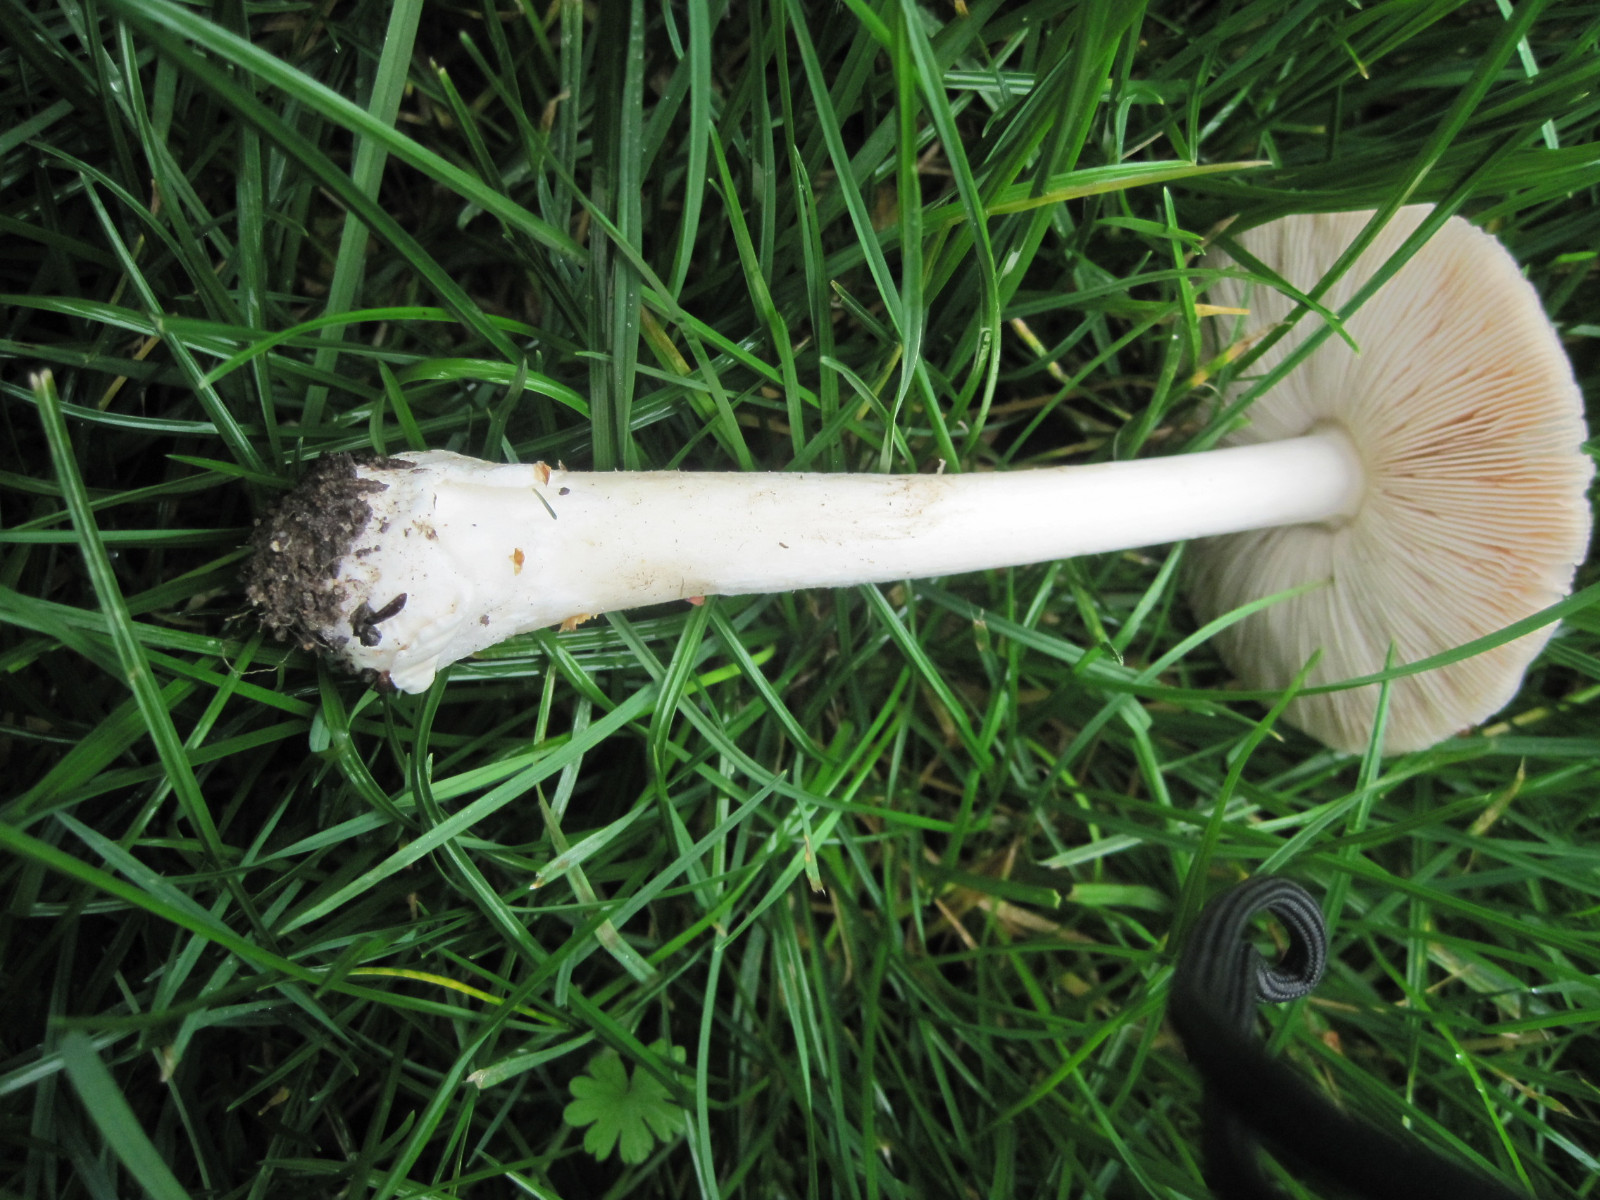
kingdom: Fungi
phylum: Basidiomycota
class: Agaricomycetes
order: Agaricales
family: Pluteaceae
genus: Volvopluteus
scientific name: Volvopluteus gloiocephalus
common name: høj posesvamp
